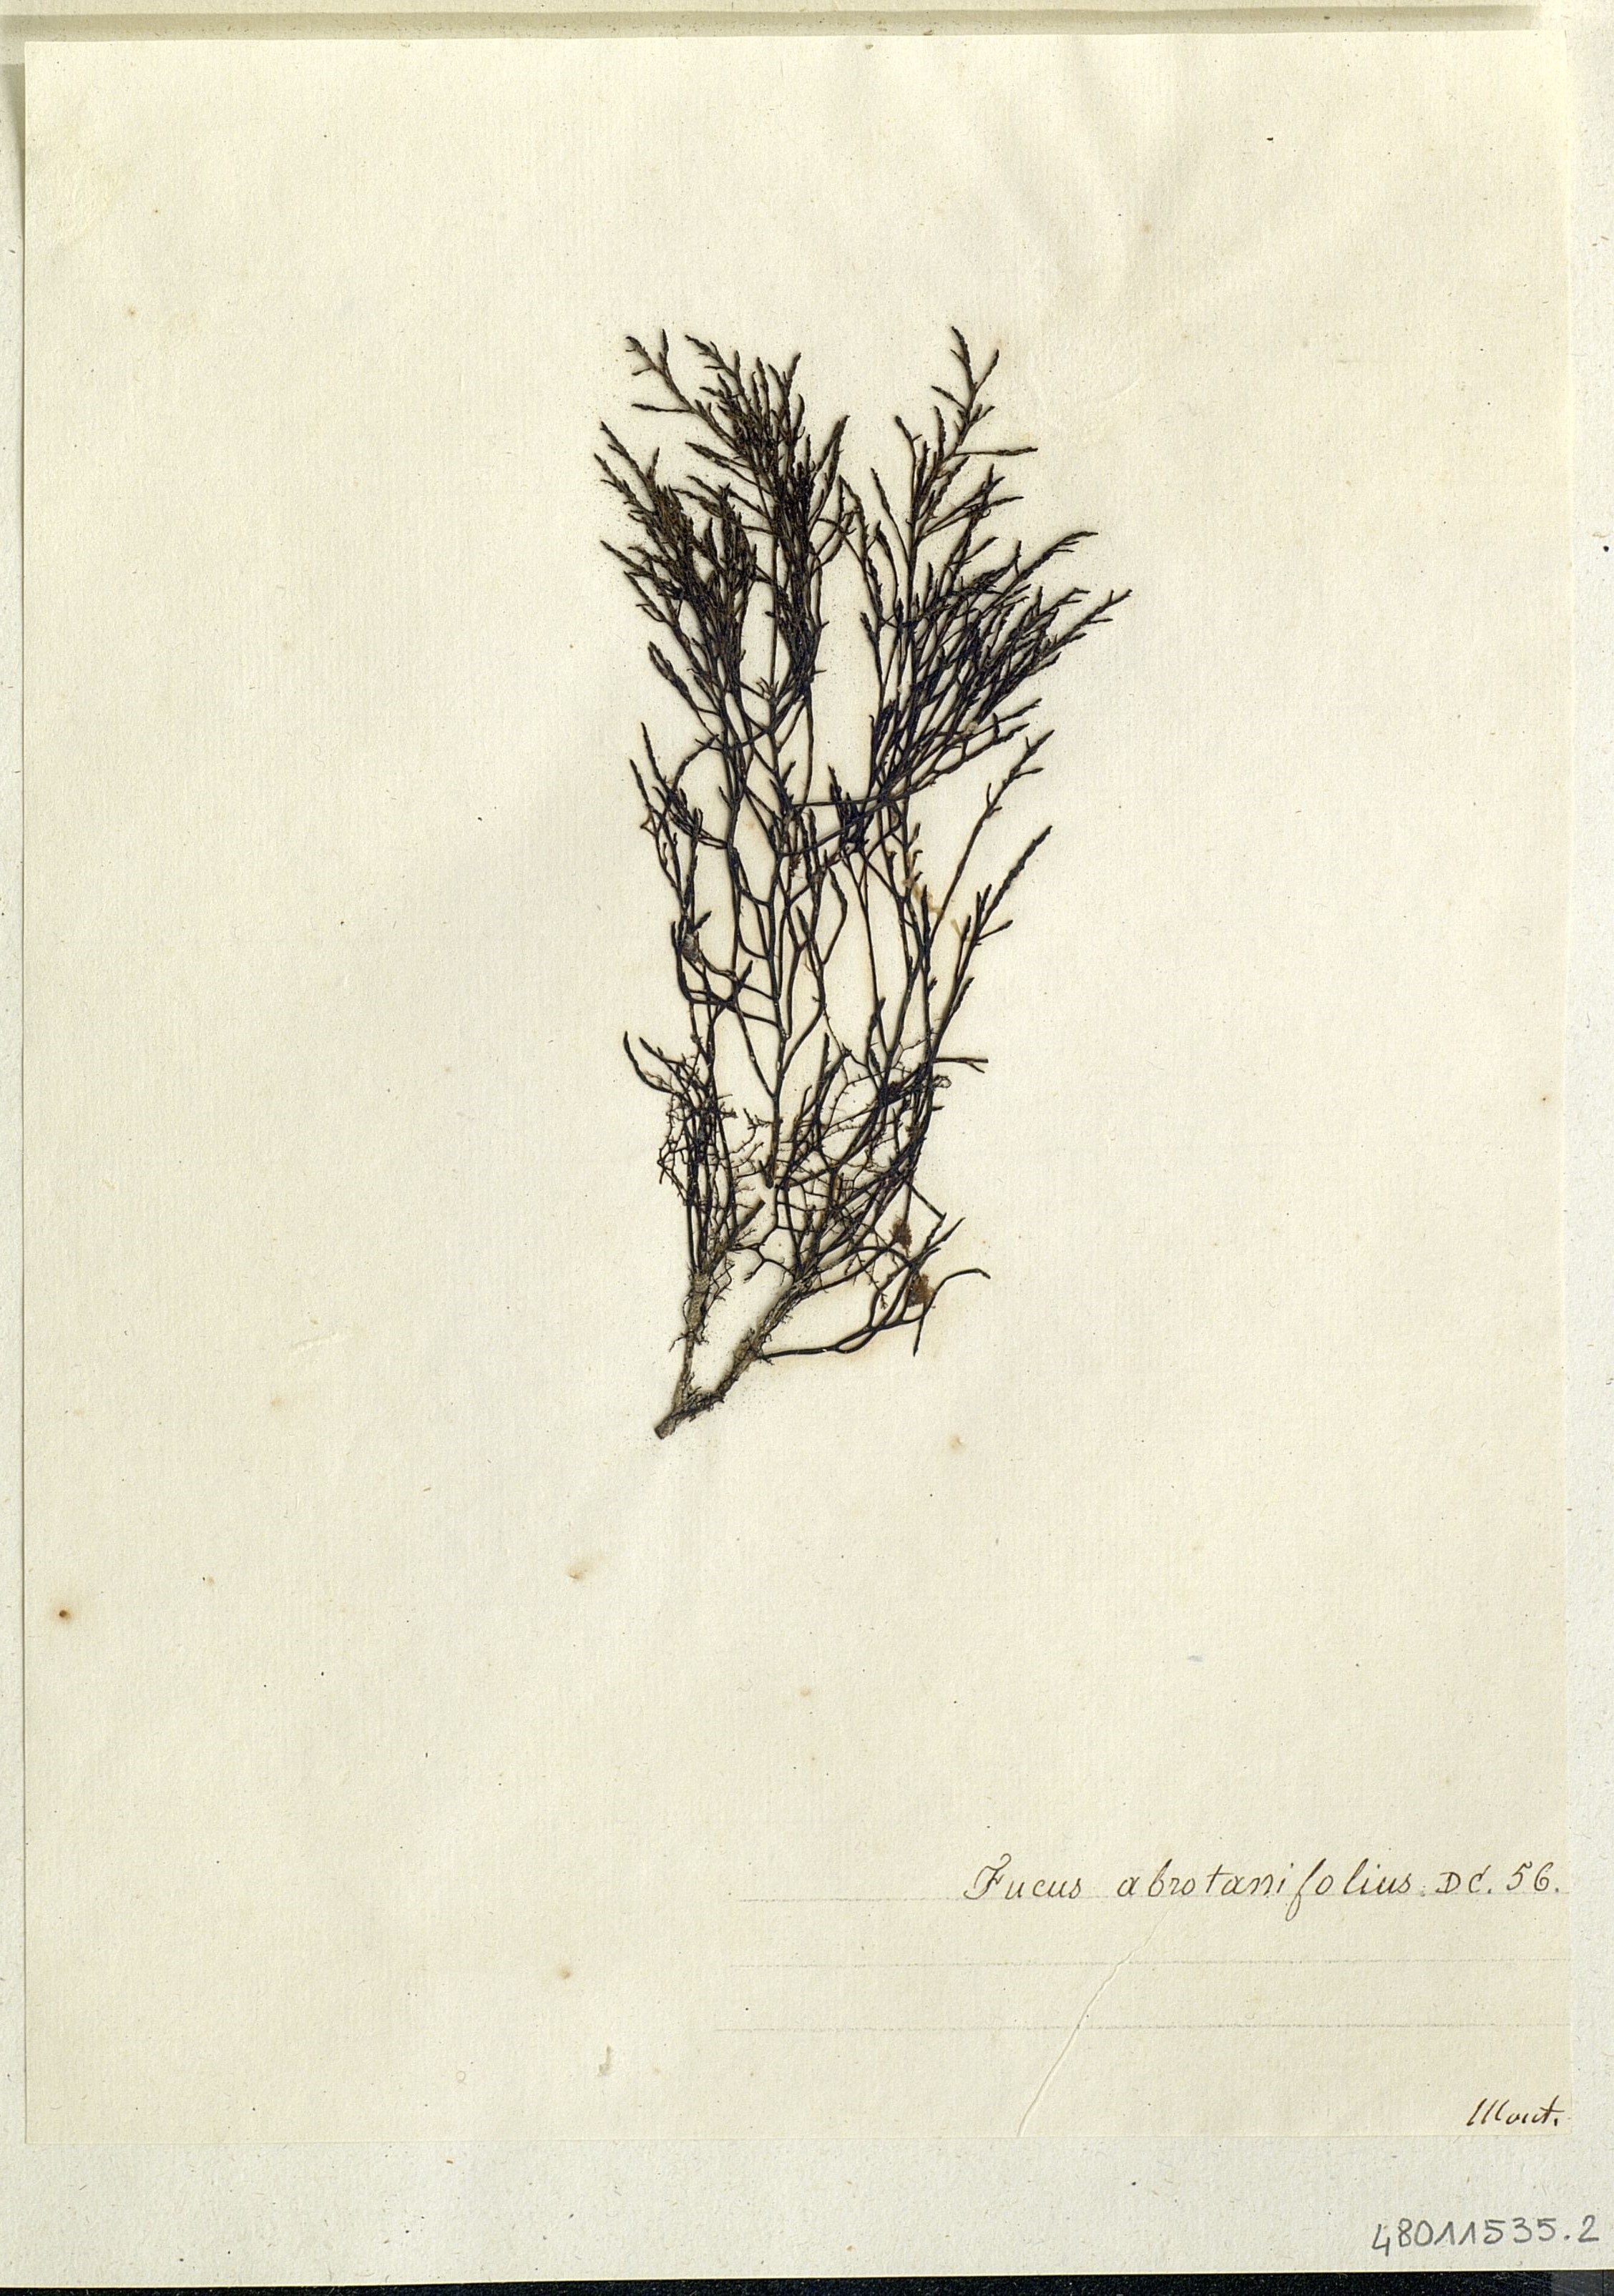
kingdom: Chromista
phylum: Ochrophyta
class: Phaeophyceae
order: Fucales
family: Sargassaceae
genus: Cystoseira
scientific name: Cystoseira foeniculacea
